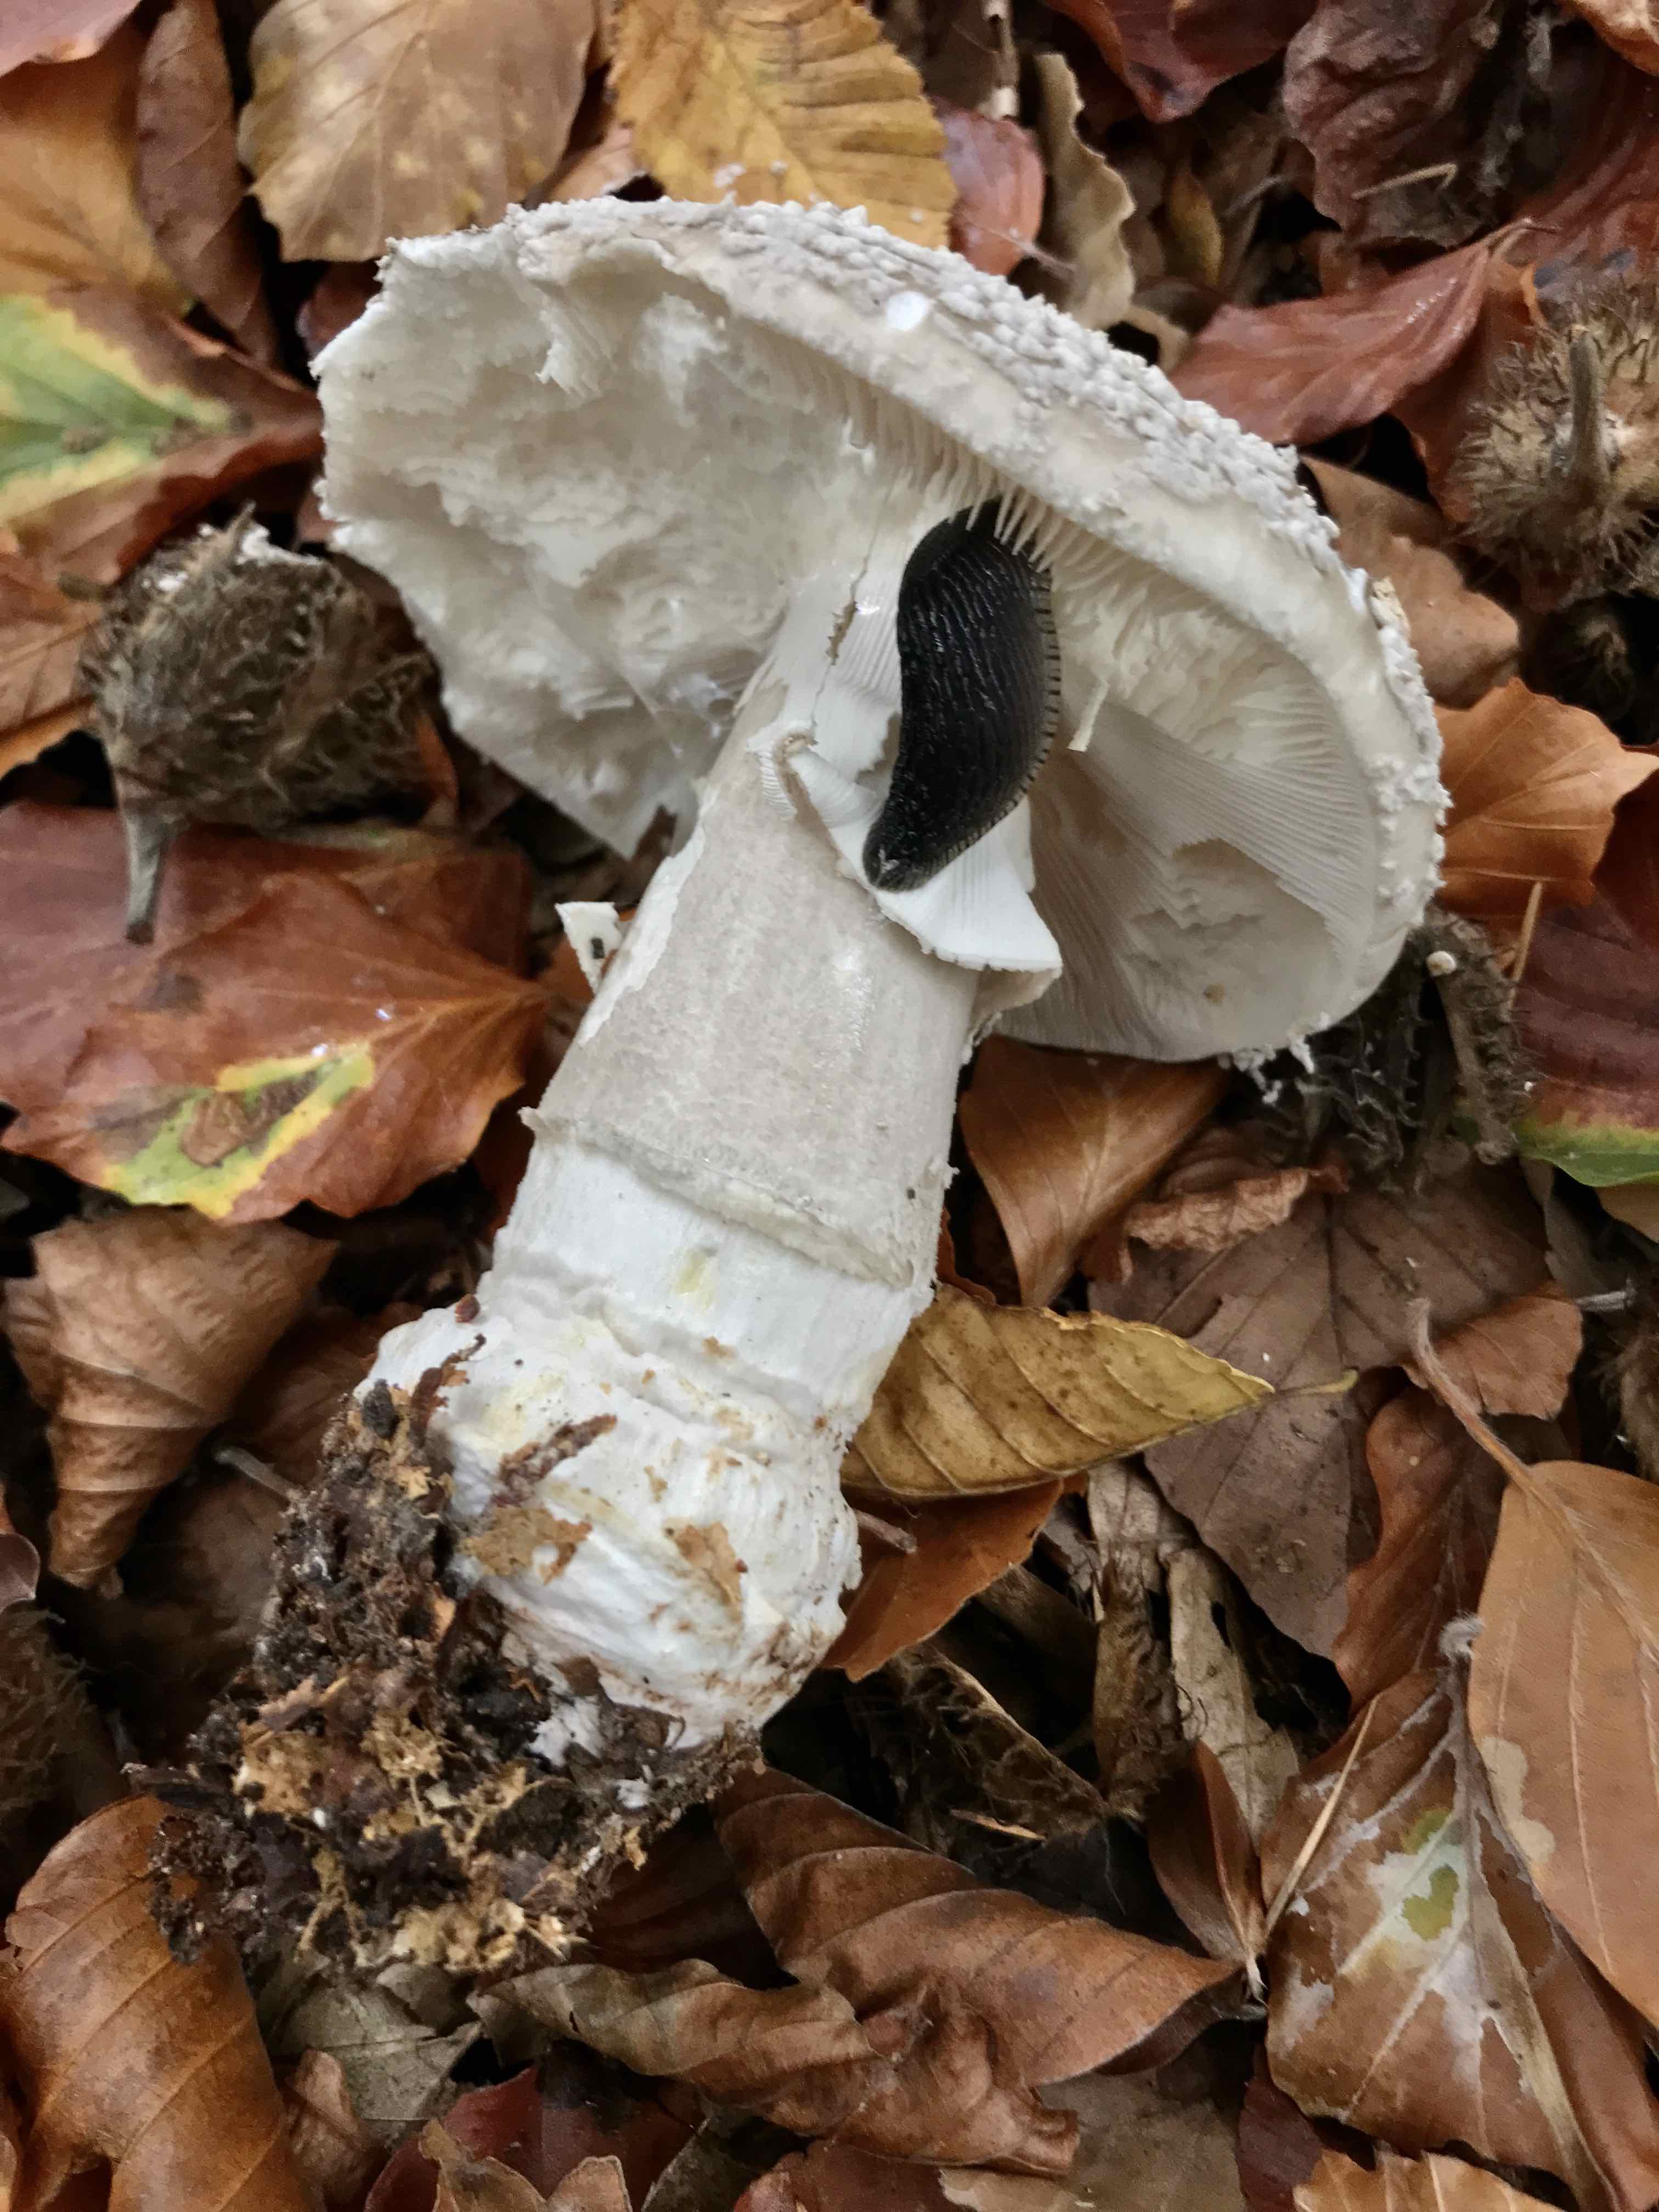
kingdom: Fungi
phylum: Basidiomycota
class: Agaricomycetes
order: Agaricales
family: Amanitaceae
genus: Amanita
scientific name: Amanita
